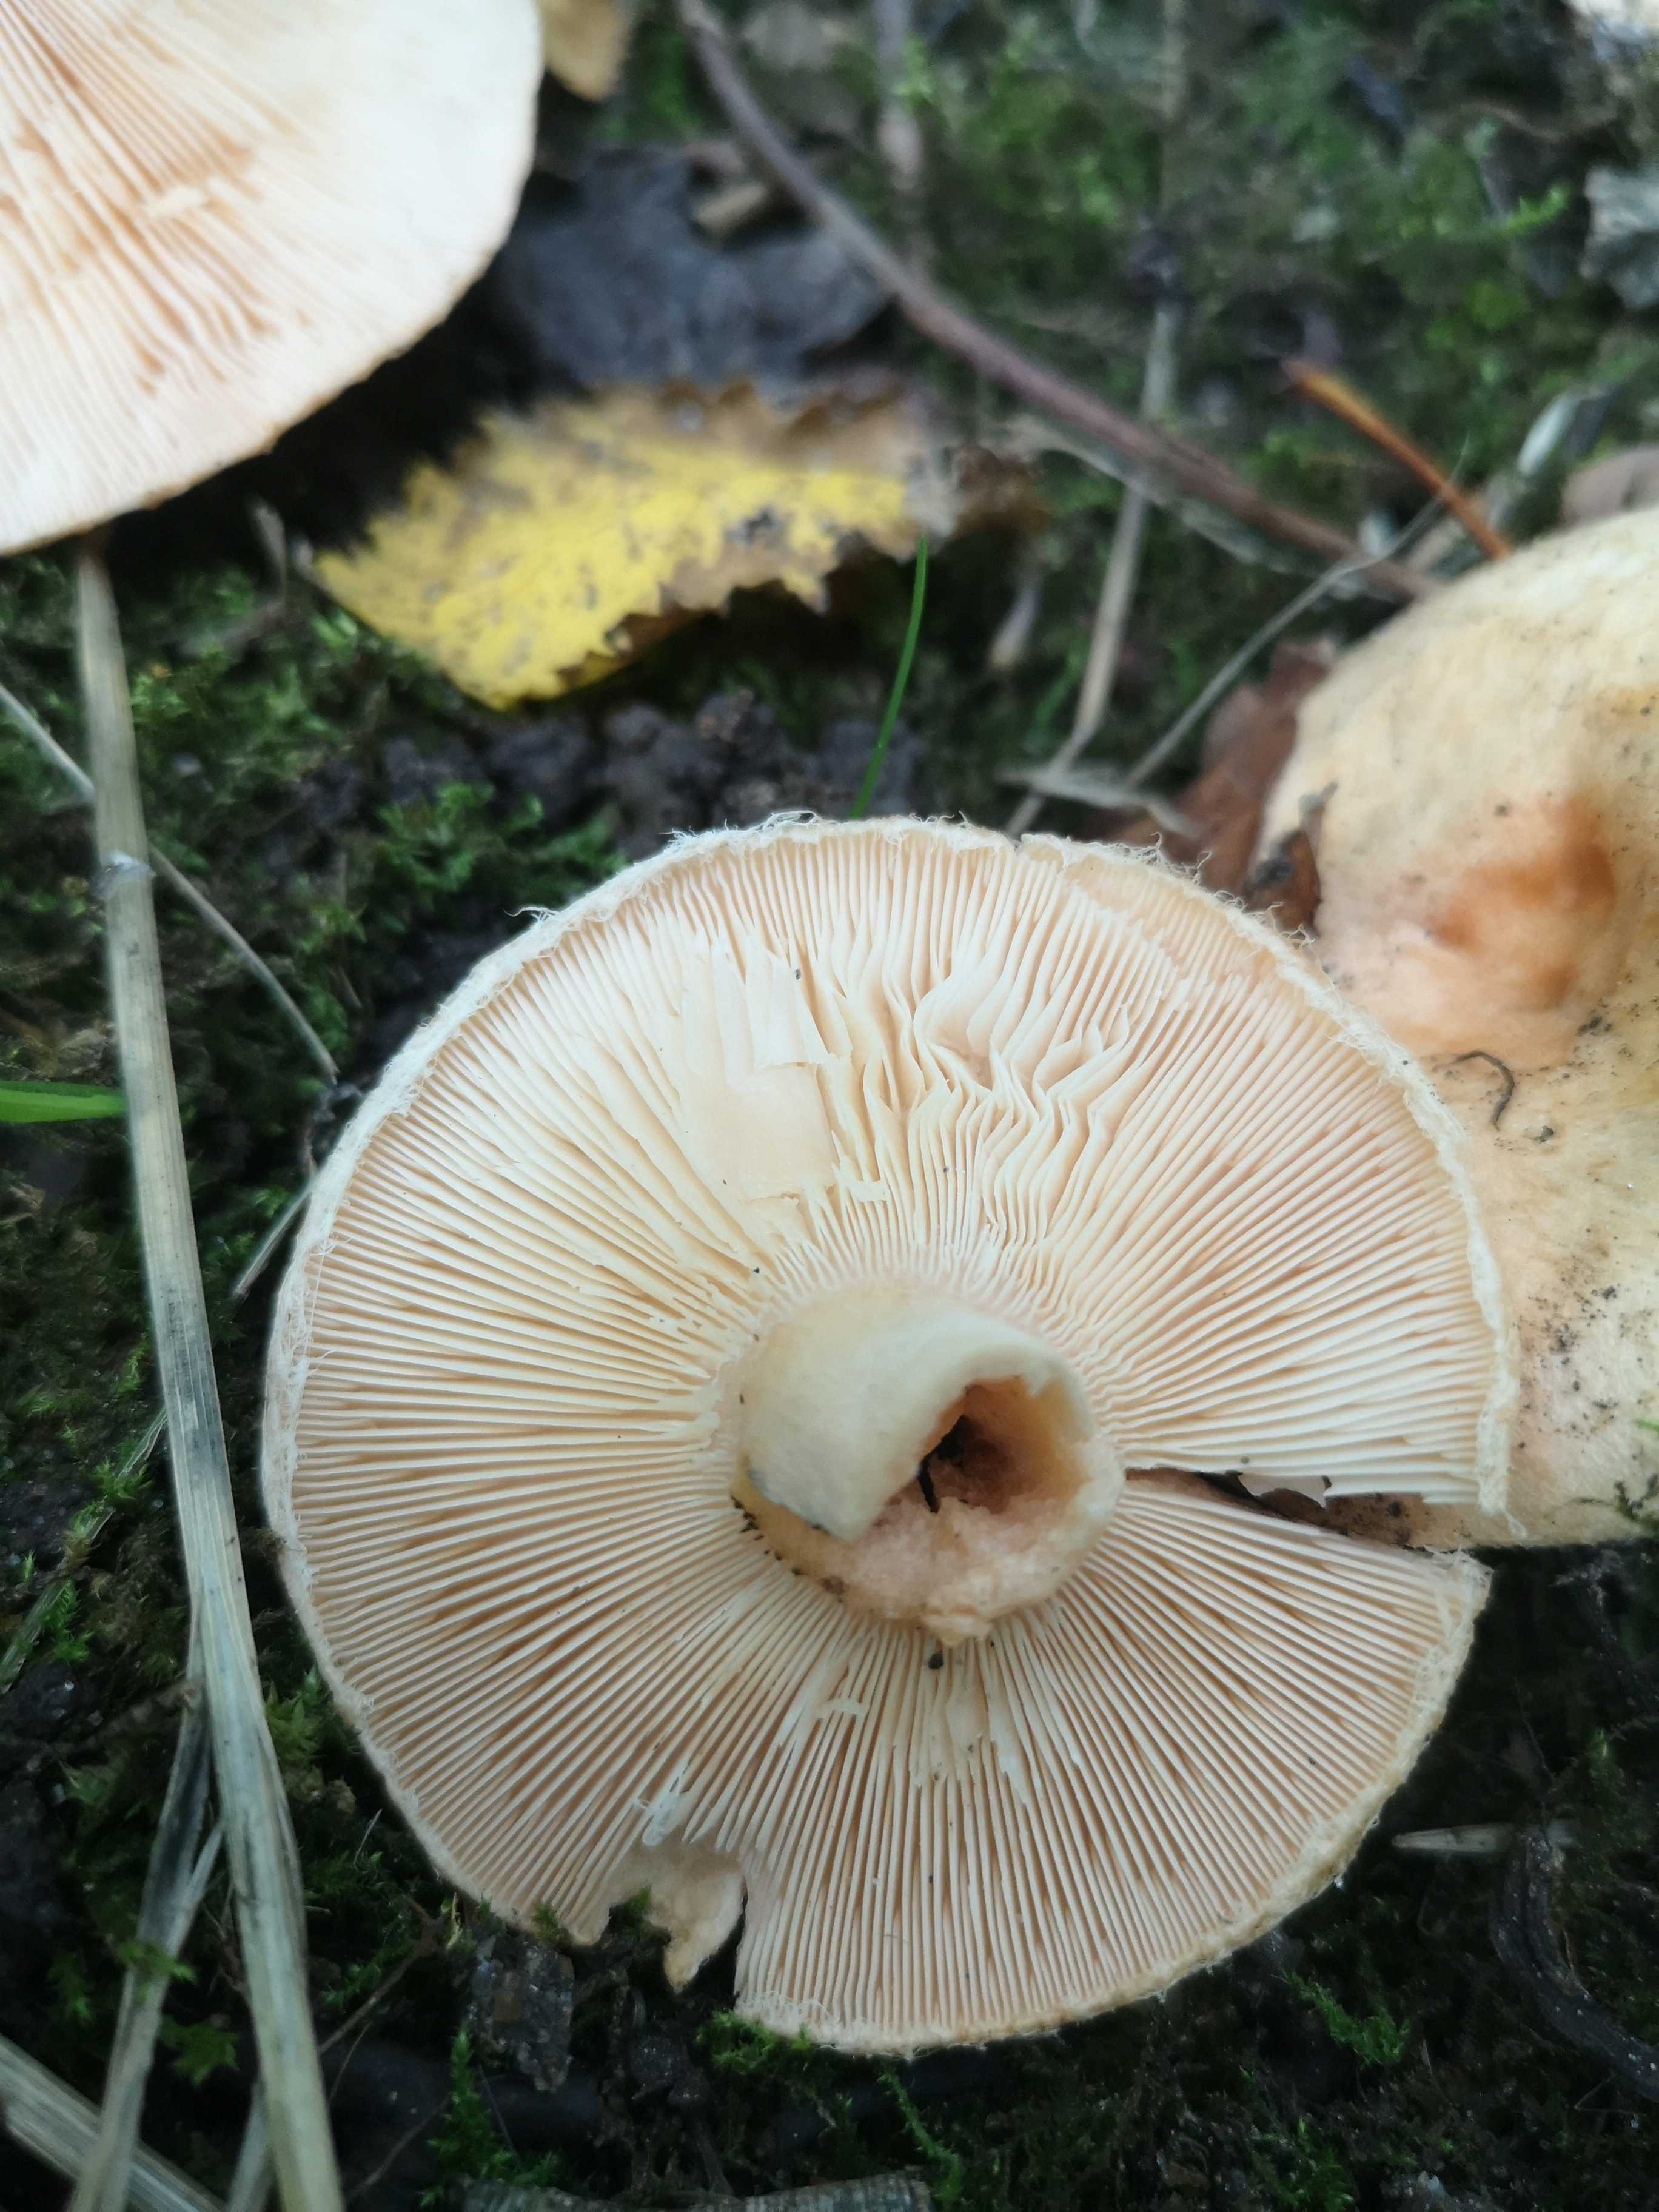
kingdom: Fungi
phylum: Basidiomycota
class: Agaricomycetes
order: Russulales
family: Russulaceae
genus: Lactarius
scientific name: Lactarius pubescens
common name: dunet mælkehat
